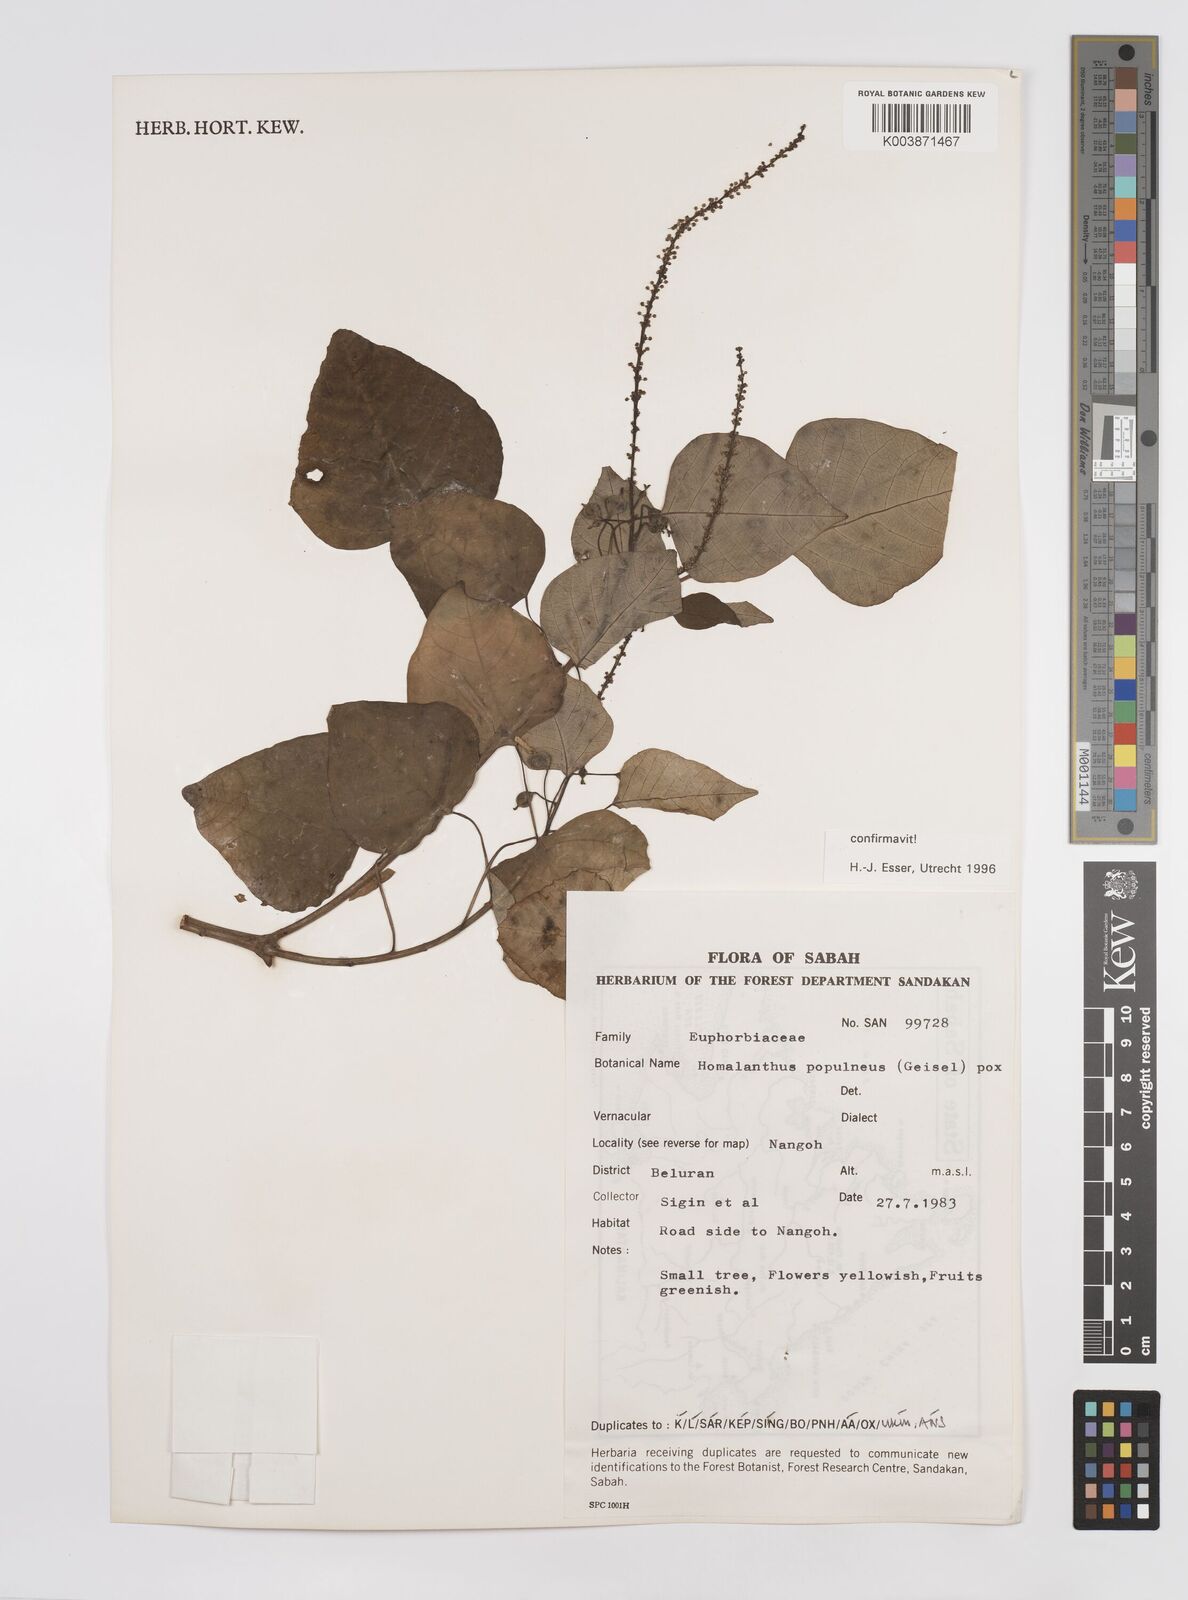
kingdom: Plantae
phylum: Tracheophyta
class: Magnoliopsida
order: Malpighiales
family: Euphorbiaceae
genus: Homalanthus
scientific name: Homalanthus populneus
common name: Spurge
